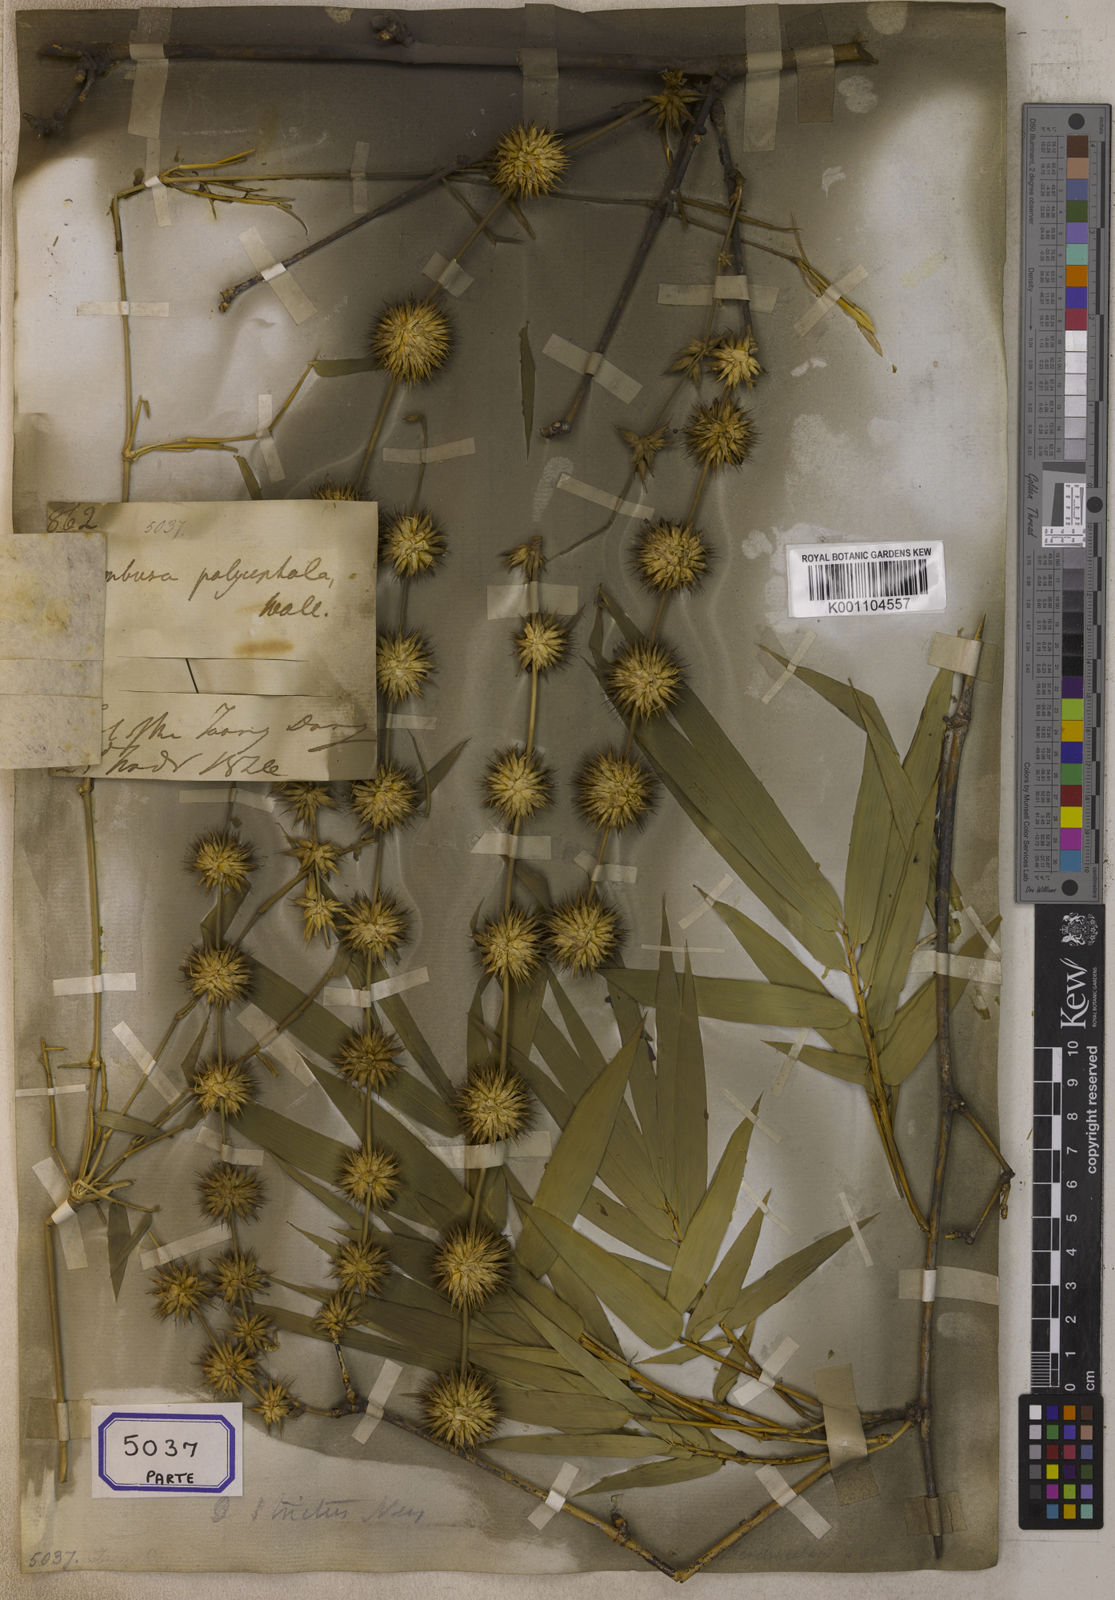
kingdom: Plantae
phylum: Tracheophyta
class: Liliopsida
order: Dioscoreales
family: Dioscoreaceae
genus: Dioscorea
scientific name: Dioscorea
